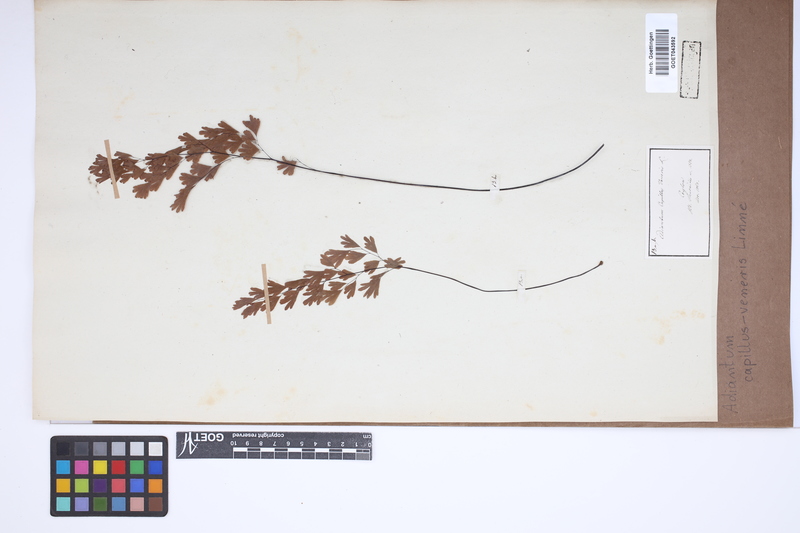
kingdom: Plantae
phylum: Tracheophyta
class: Polypodiopsida
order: Polypodiales
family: Pteridaceae
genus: Adiantum
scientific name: Adiantum capillus-veneris
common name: Maidenhair fern
